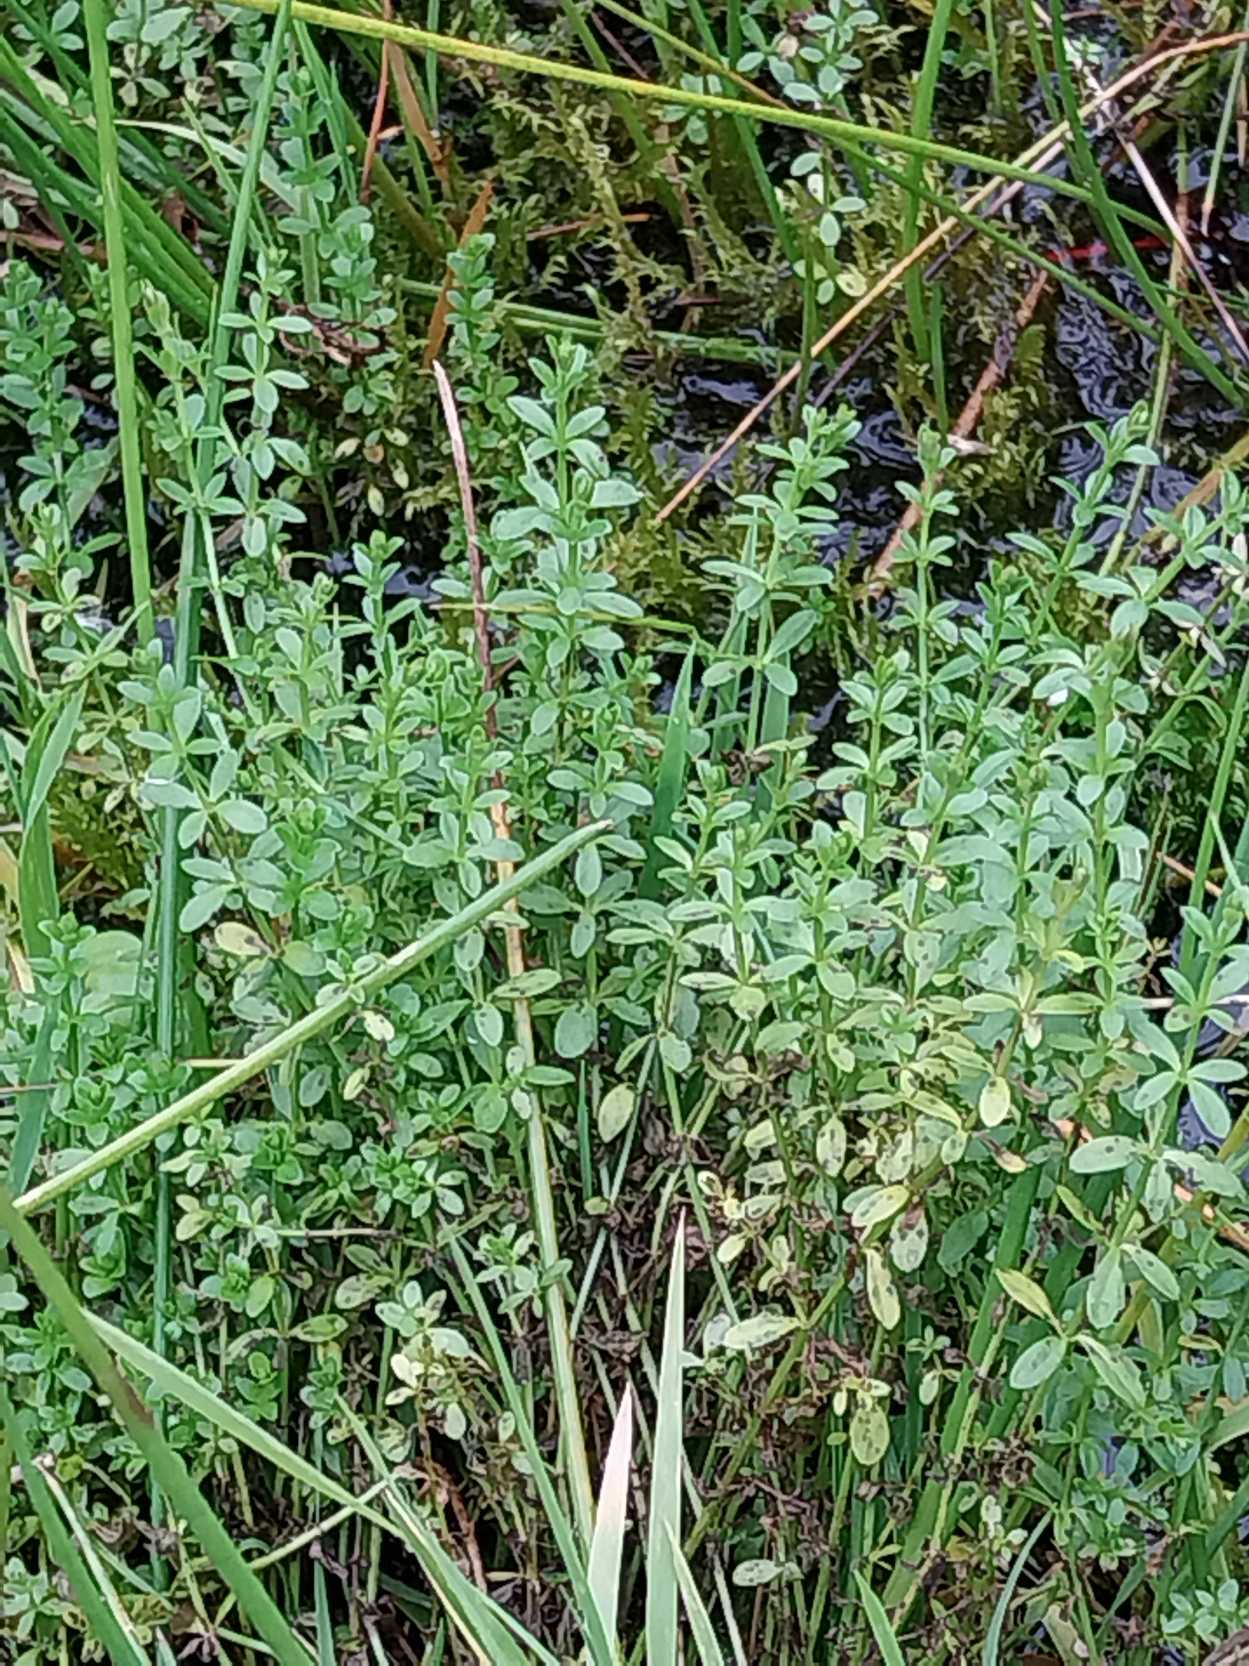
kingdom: Plantae
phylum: Tracheophyta
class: Magnoliopsida
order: Gentianales
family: Rubiaceae
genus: Galium
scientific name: Galium palustre
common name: Kær-snerre
